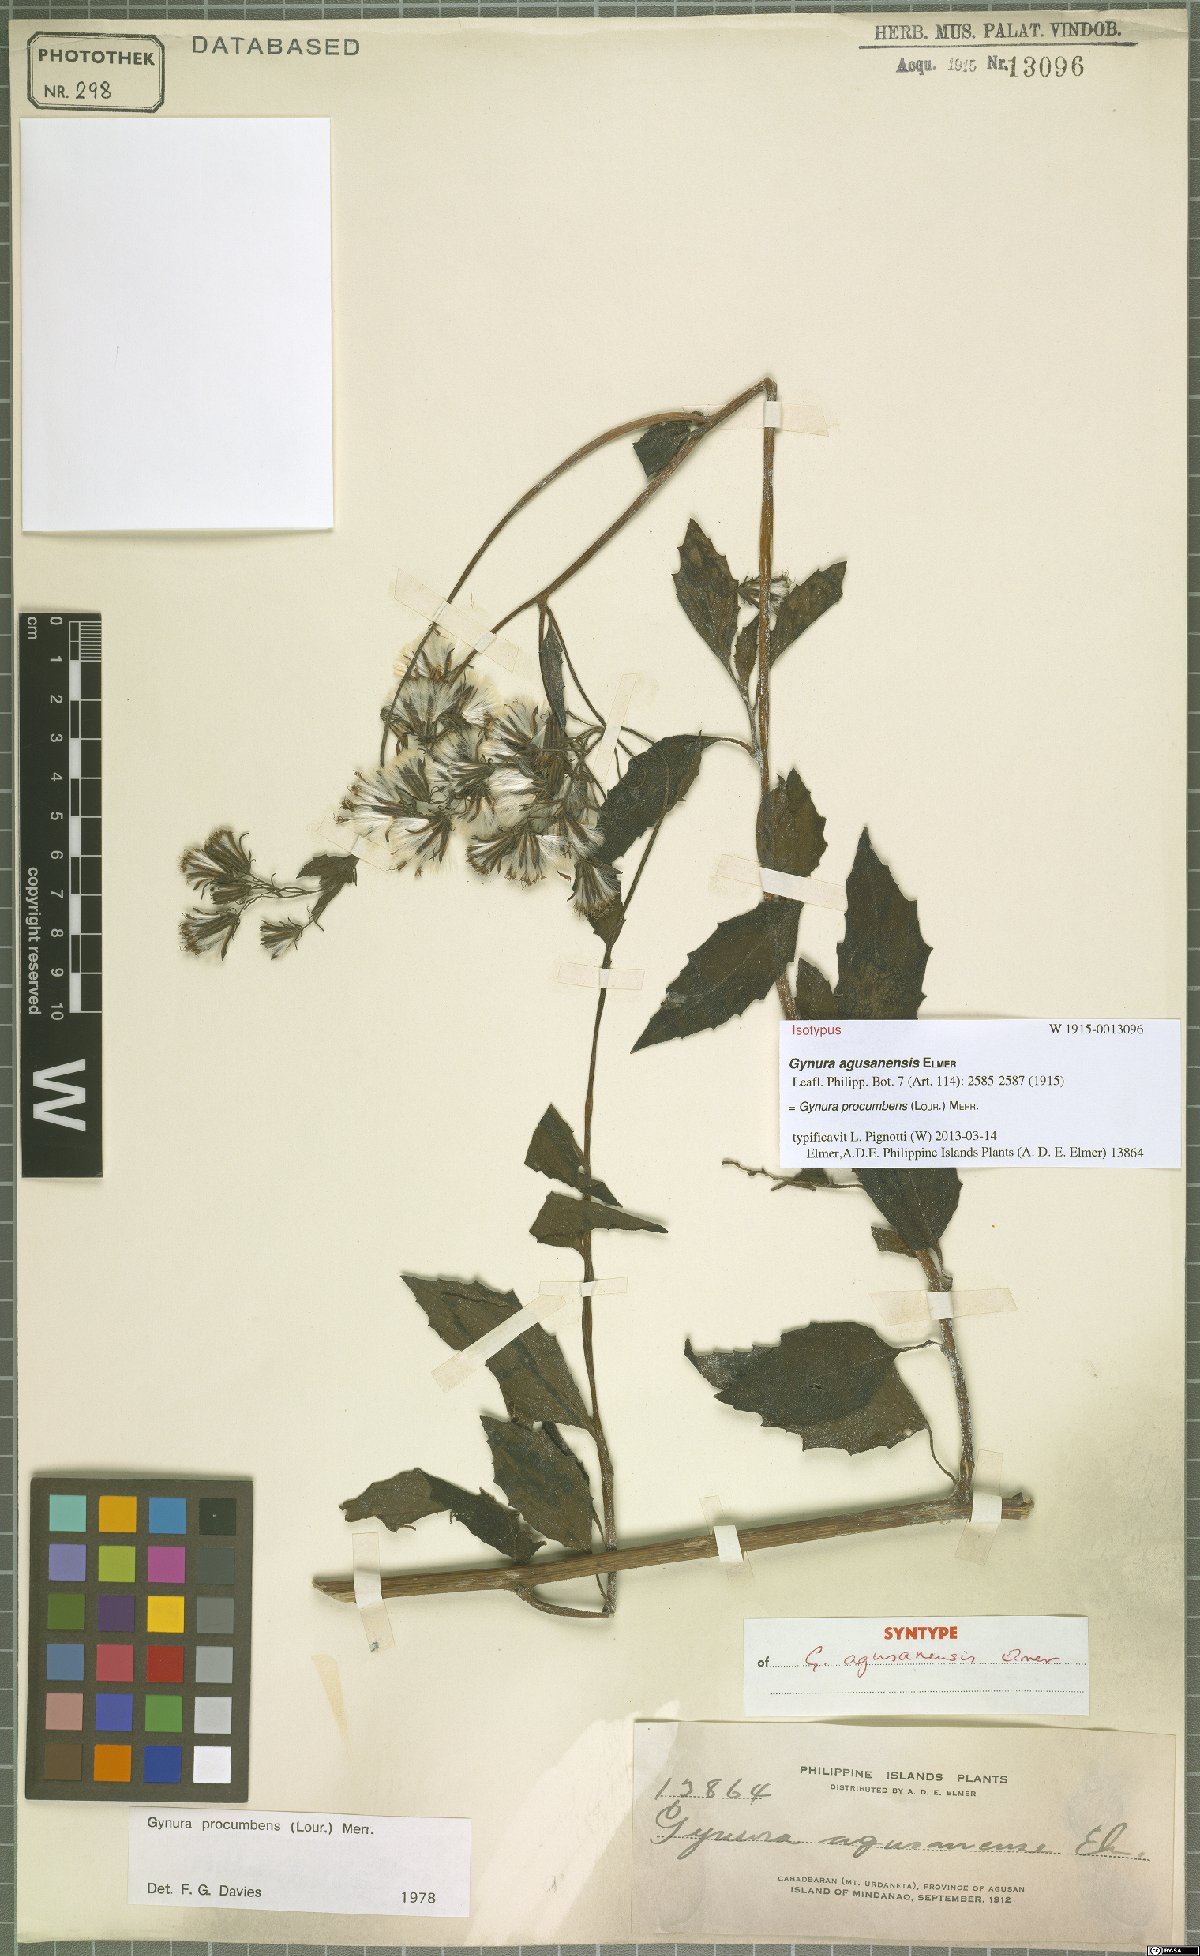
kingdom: Plantae
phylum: Tracheophyta
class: Magnoliopsida
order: Asterales
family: Asteraceae
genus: Gynura
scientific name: Gynura procumbens
